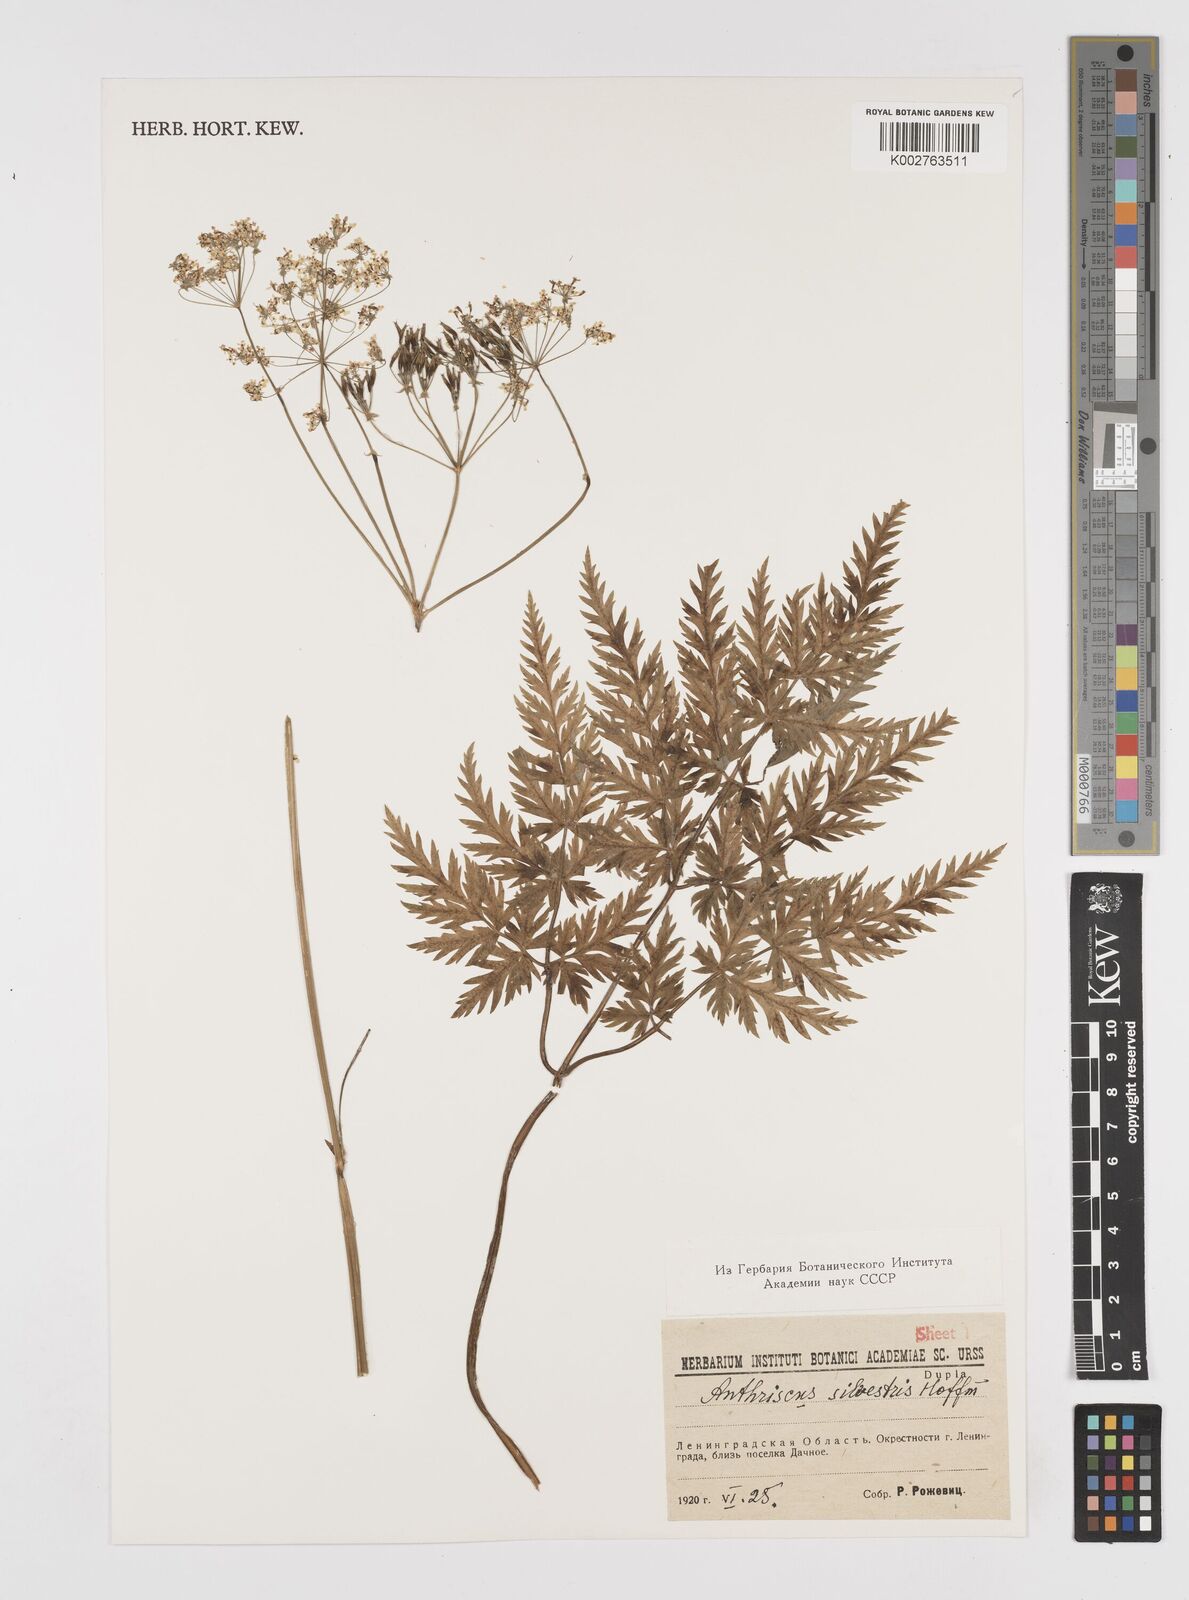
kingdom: Plantae
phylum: Tracheophyta
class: Magnoliopsida
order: Apiales
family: Apiaceae
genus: Anthriscus
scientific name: Anthriscus sylvestris
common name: Cow parsley
